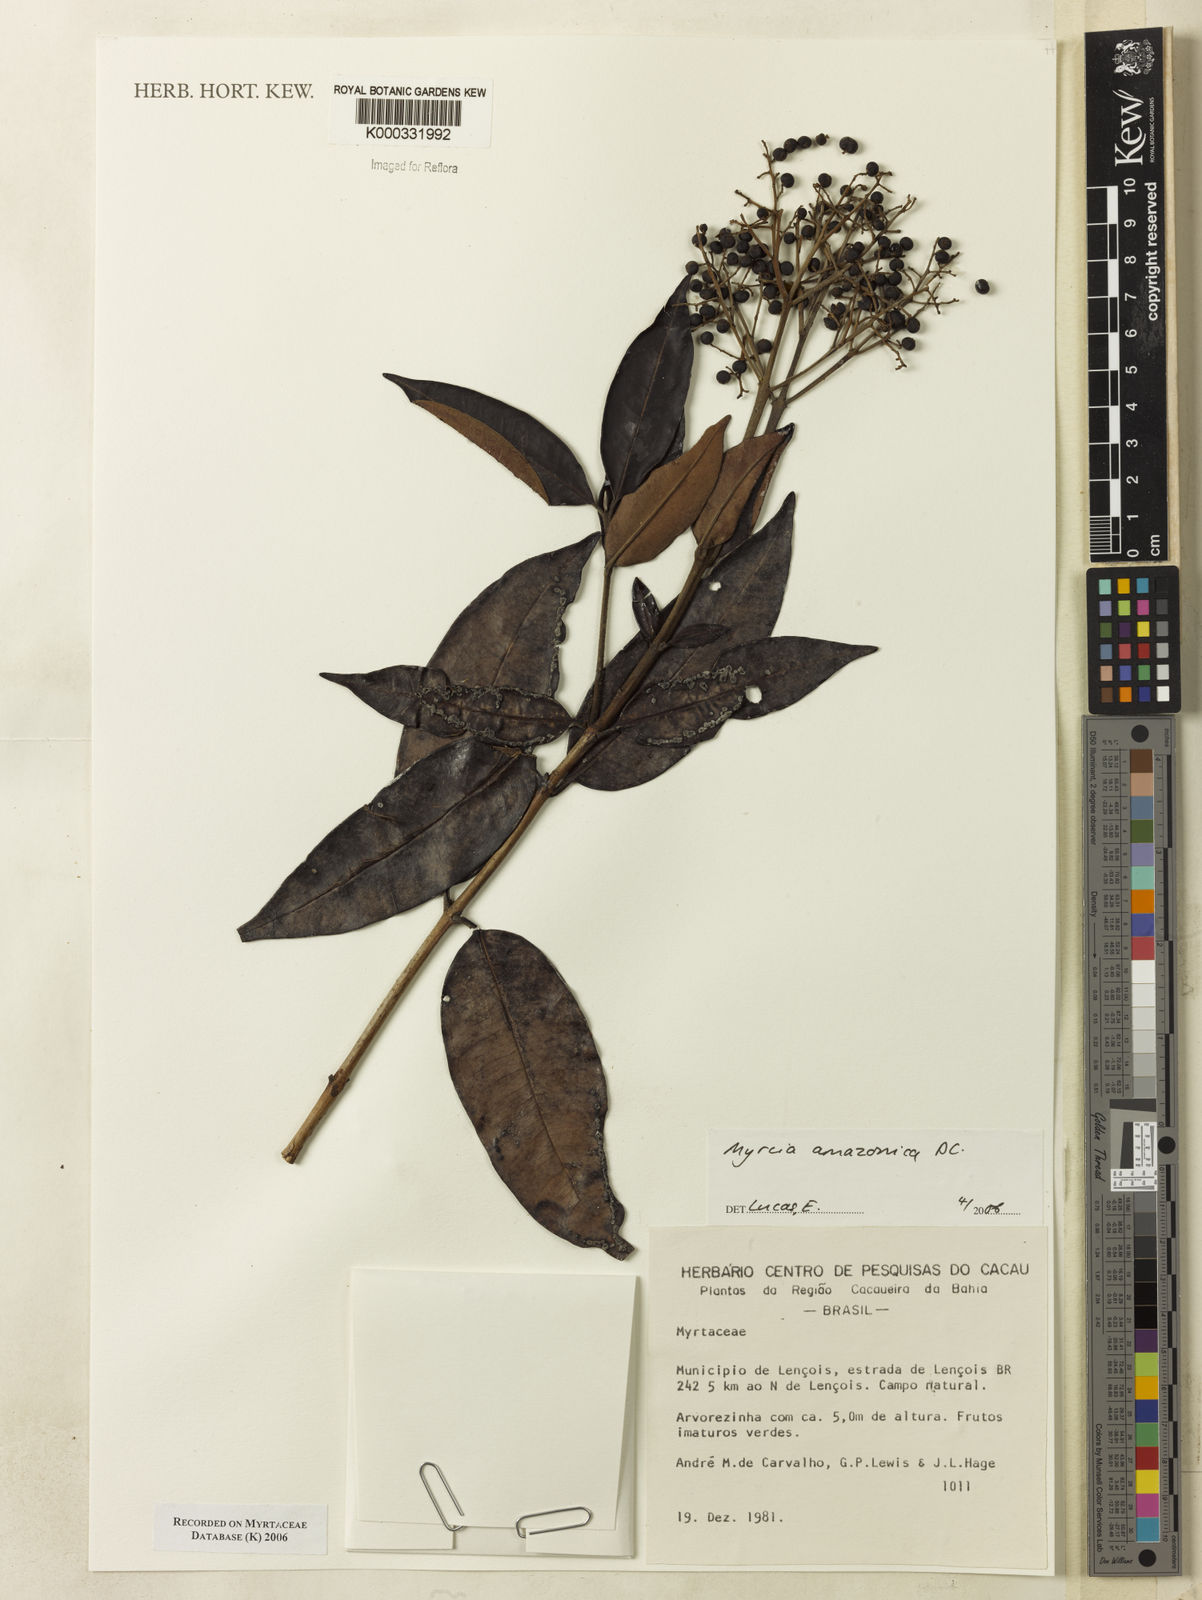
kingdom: Plantae
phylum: Tracheophyta
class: Magnoliopsida
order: Myrtales
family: Myrtaceae
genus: Myrcia
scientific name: Myrcia amazonica
